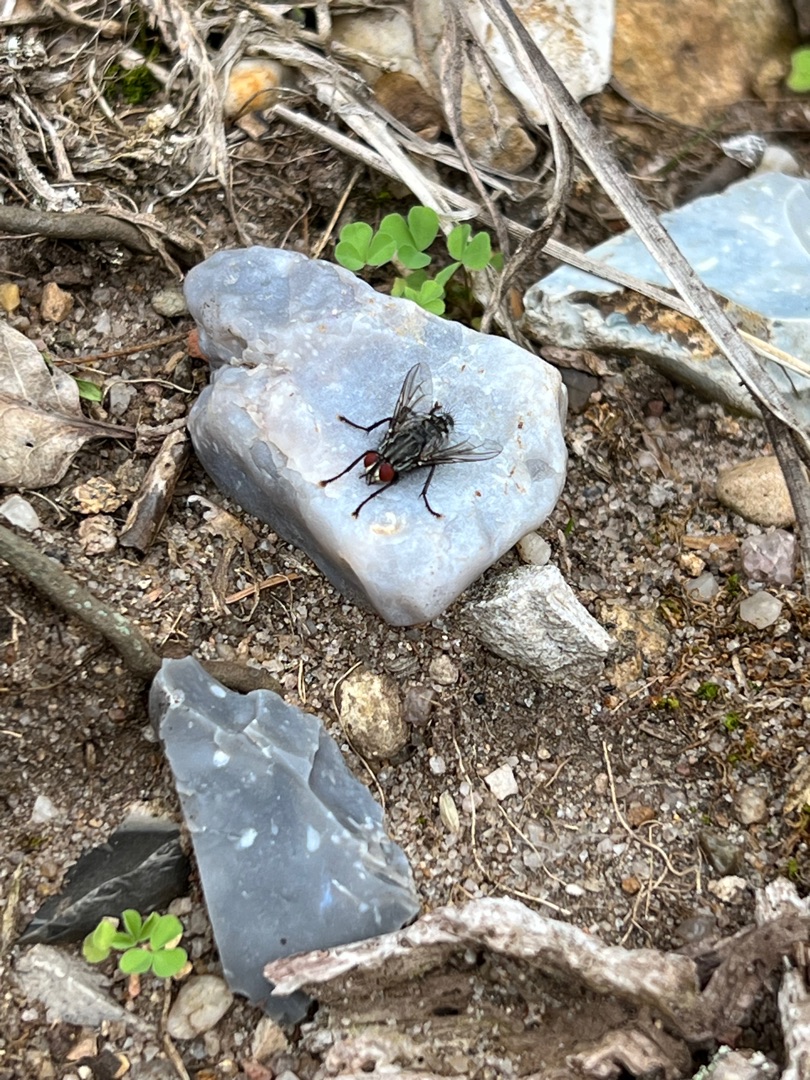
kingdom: Animalia
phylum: Arthropoda
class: Insecta
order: Diptera
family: Sarcophagidae
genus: Sarcophaga
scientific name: Sarcophaga
